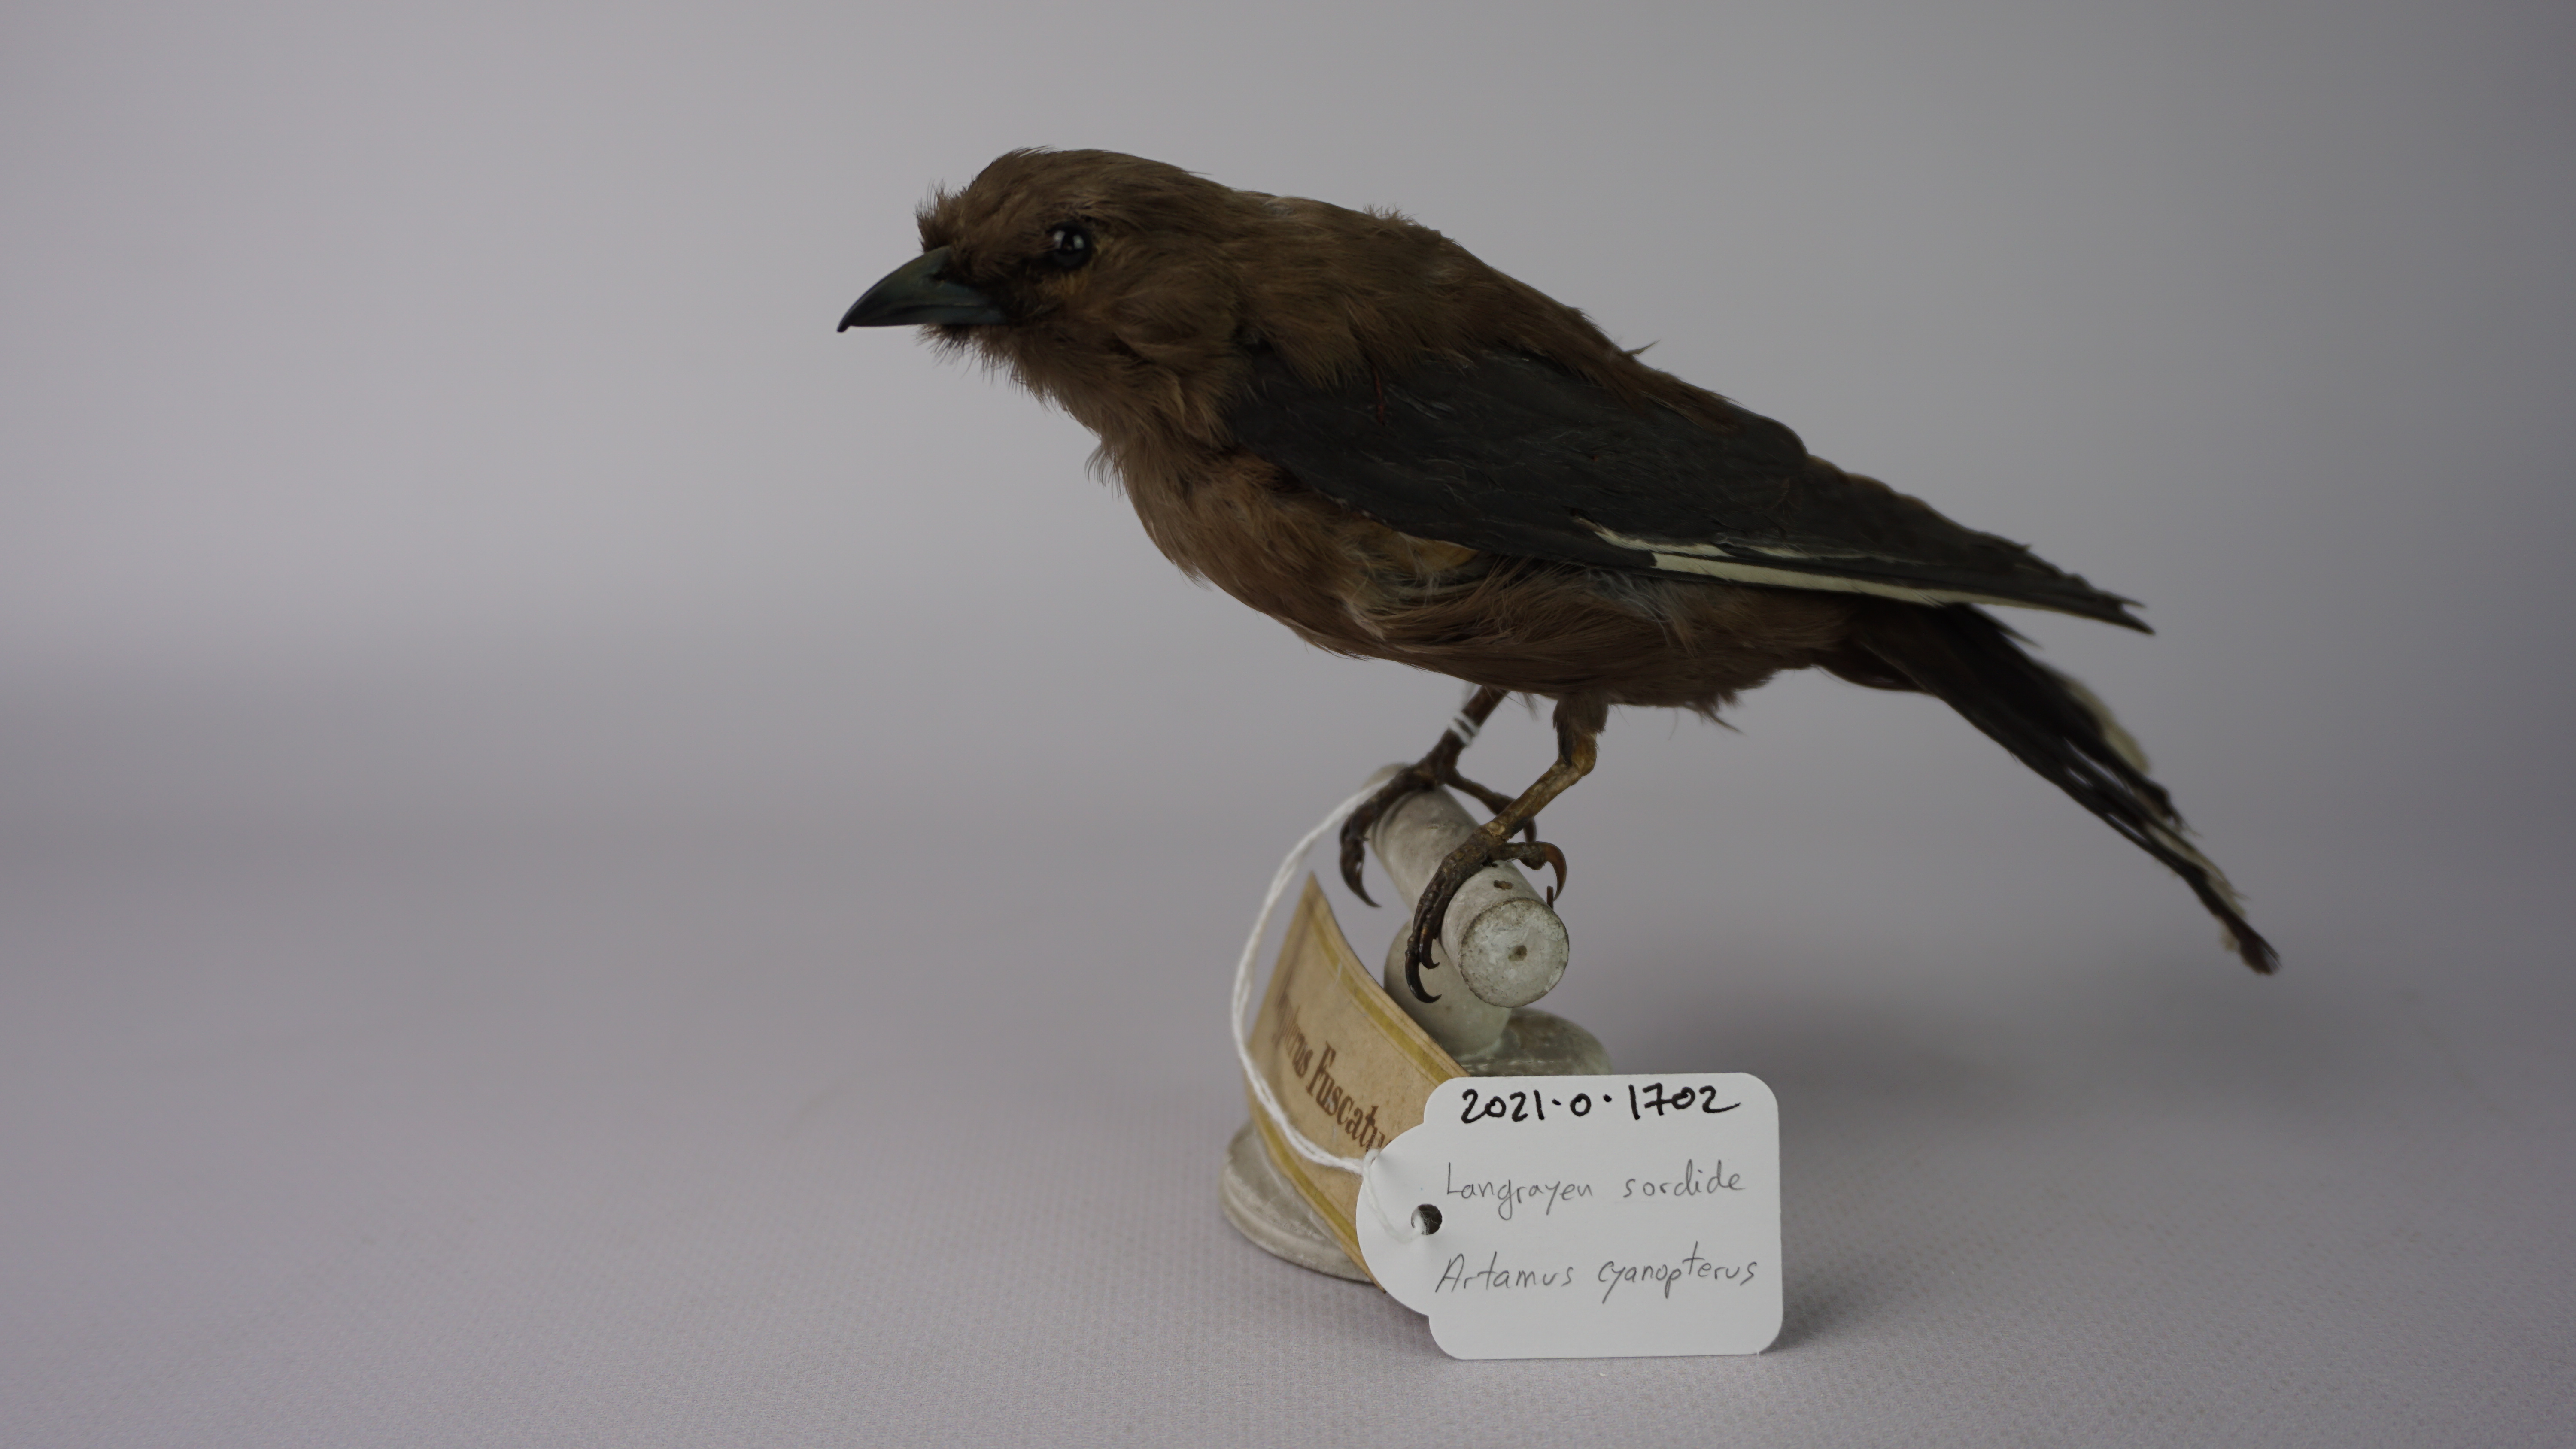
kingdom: Animalia
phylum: Chordata
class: Aves
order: Passeriformes
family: Artamidae
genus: Artamus
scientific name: Artamus cyanopterus
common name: Dusky woodswallow
